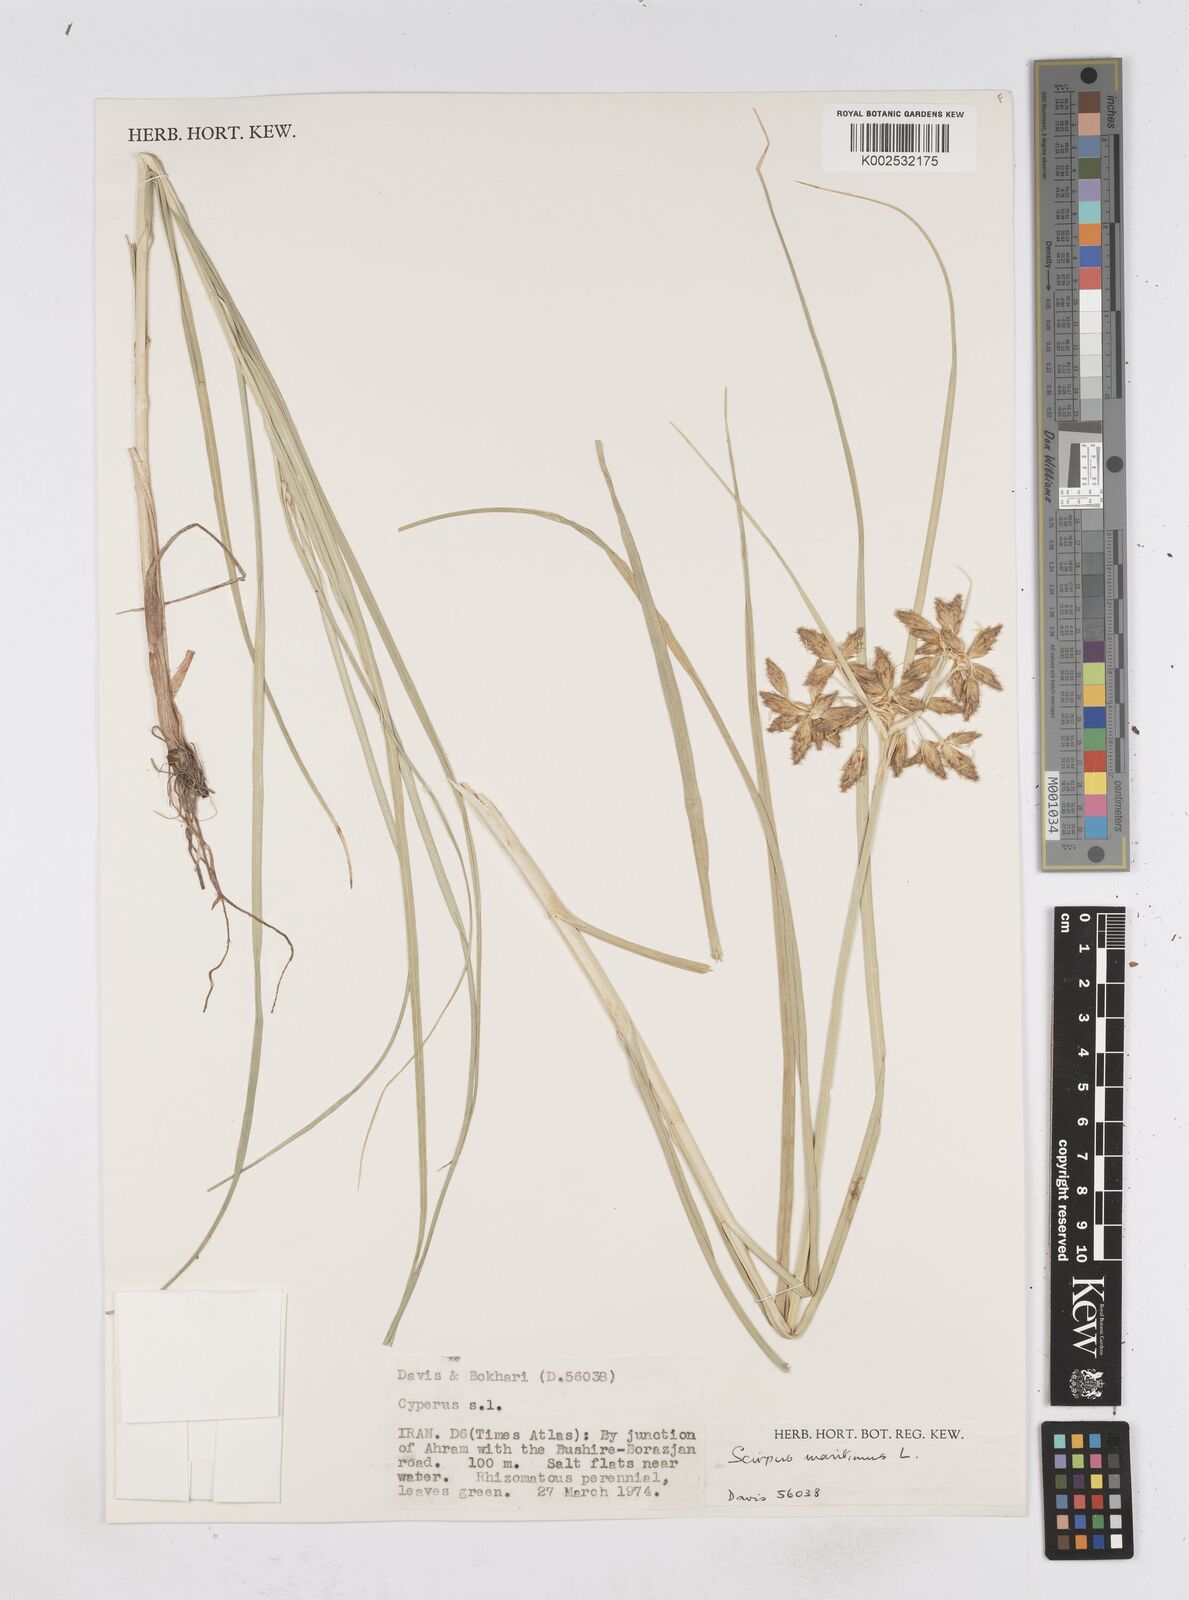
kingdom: Plantae
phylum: Tracheophyta
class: Liliopsida
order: Poales
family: Cyperaceae
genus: Bolboschoenus
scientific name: Bolboschoenus maritimus
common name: Sea club-rush
